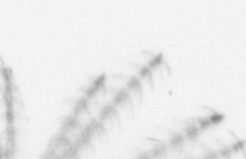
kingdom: Animalia
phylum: Arthropoda
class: Maxillopoda
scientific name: Maxillopoda
